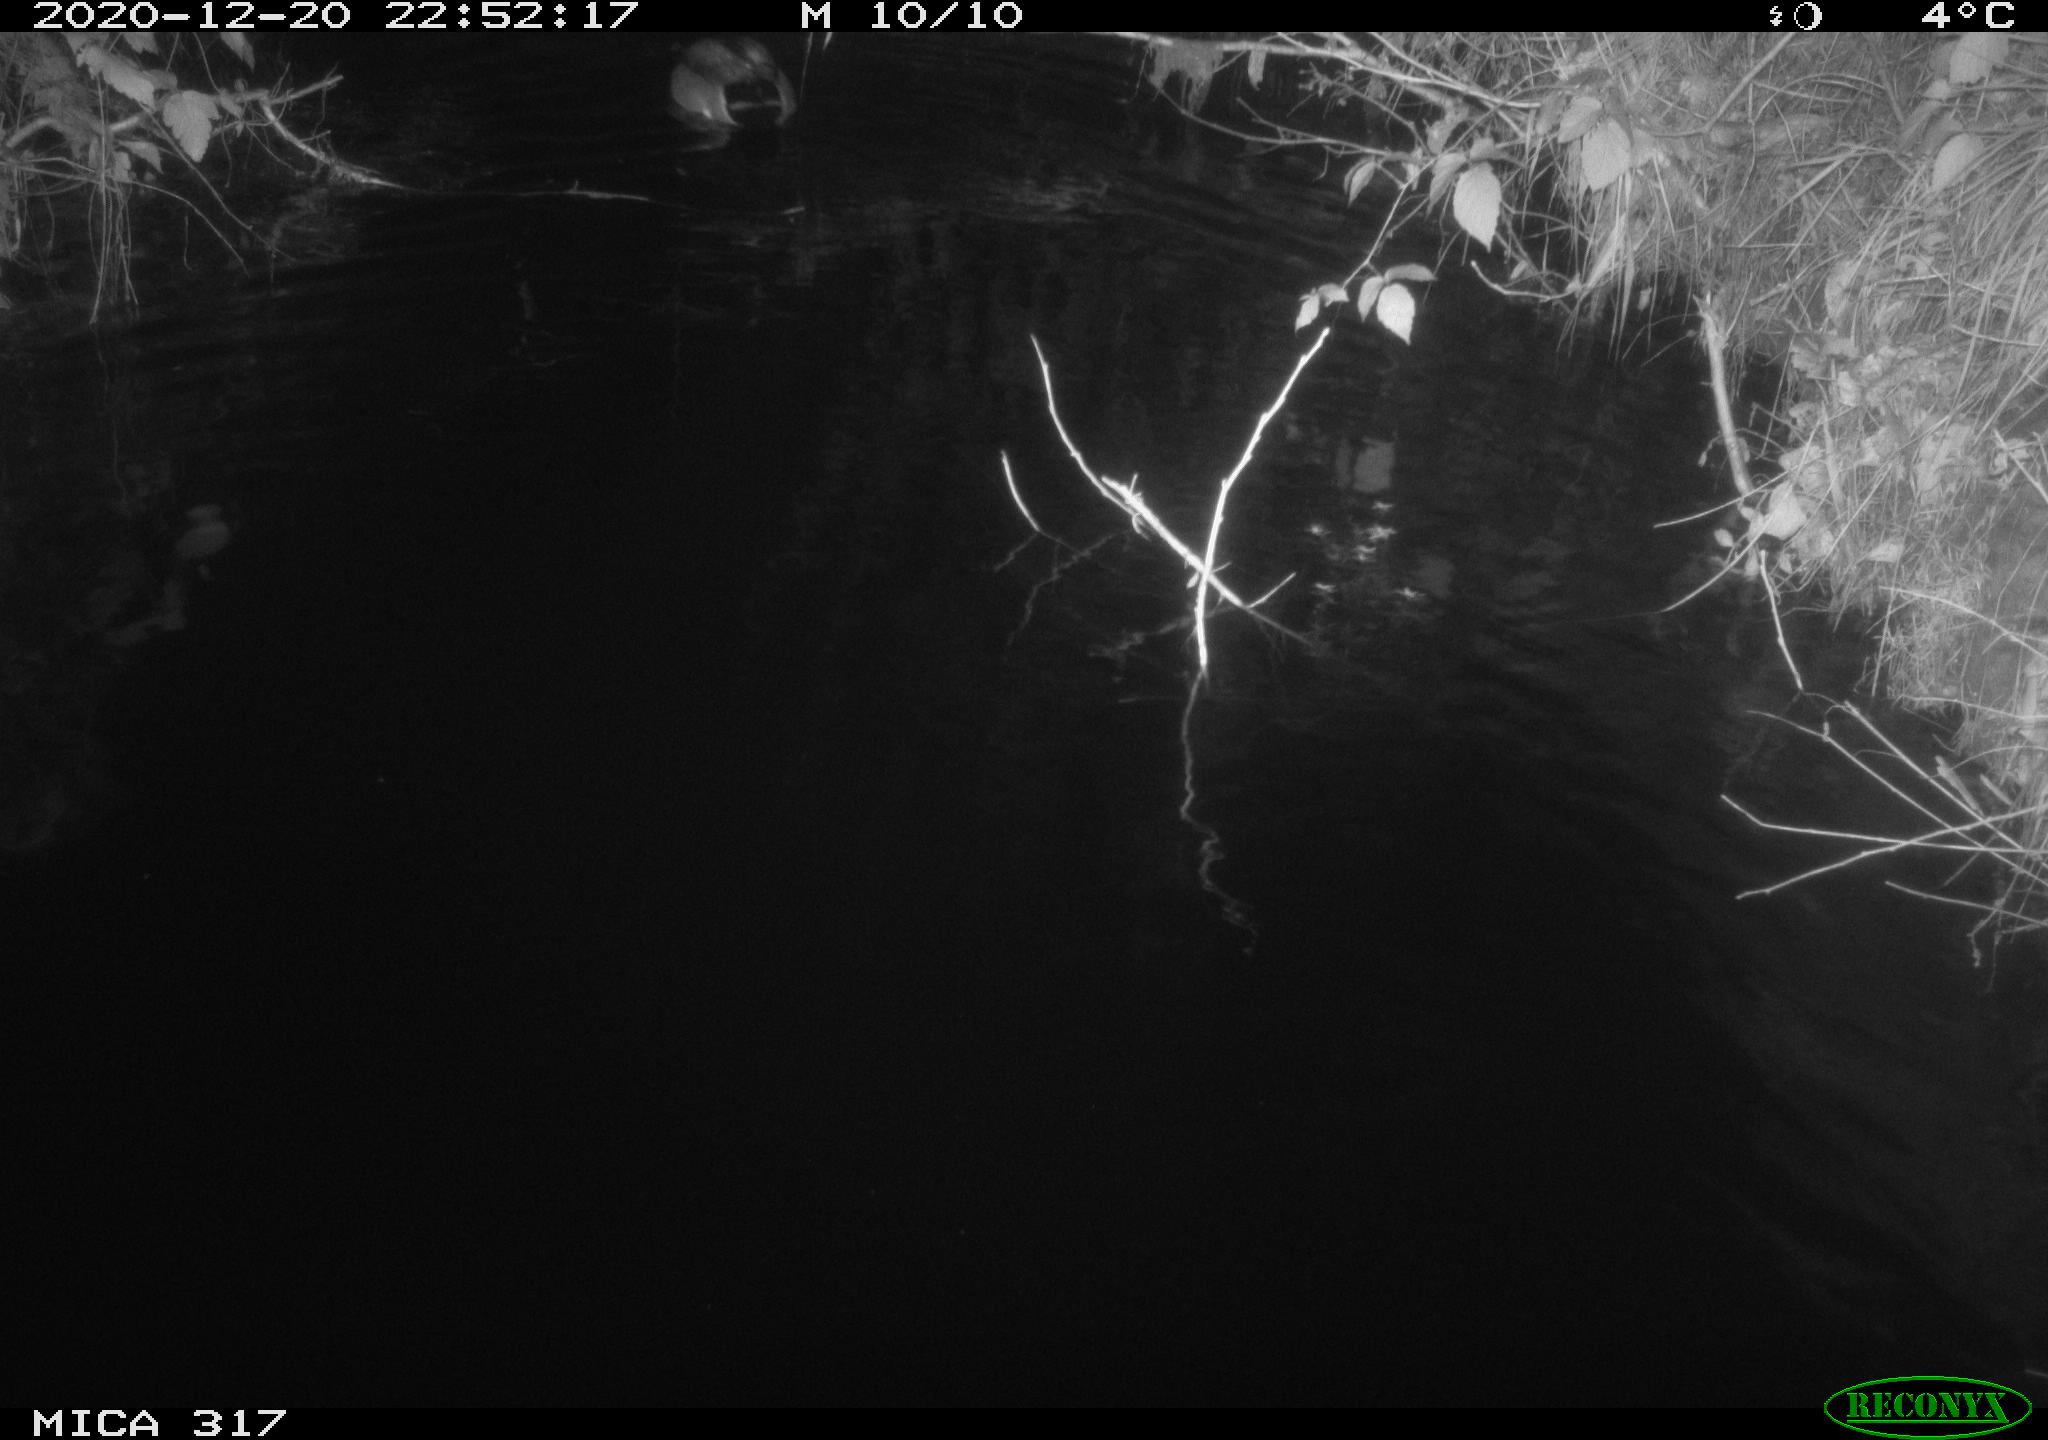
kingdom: Animalia
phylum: Chordata
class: Aves
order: Anseriformes
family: Anatidae
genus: Anas
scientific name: Anas platyrhynchos
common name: Mallard
